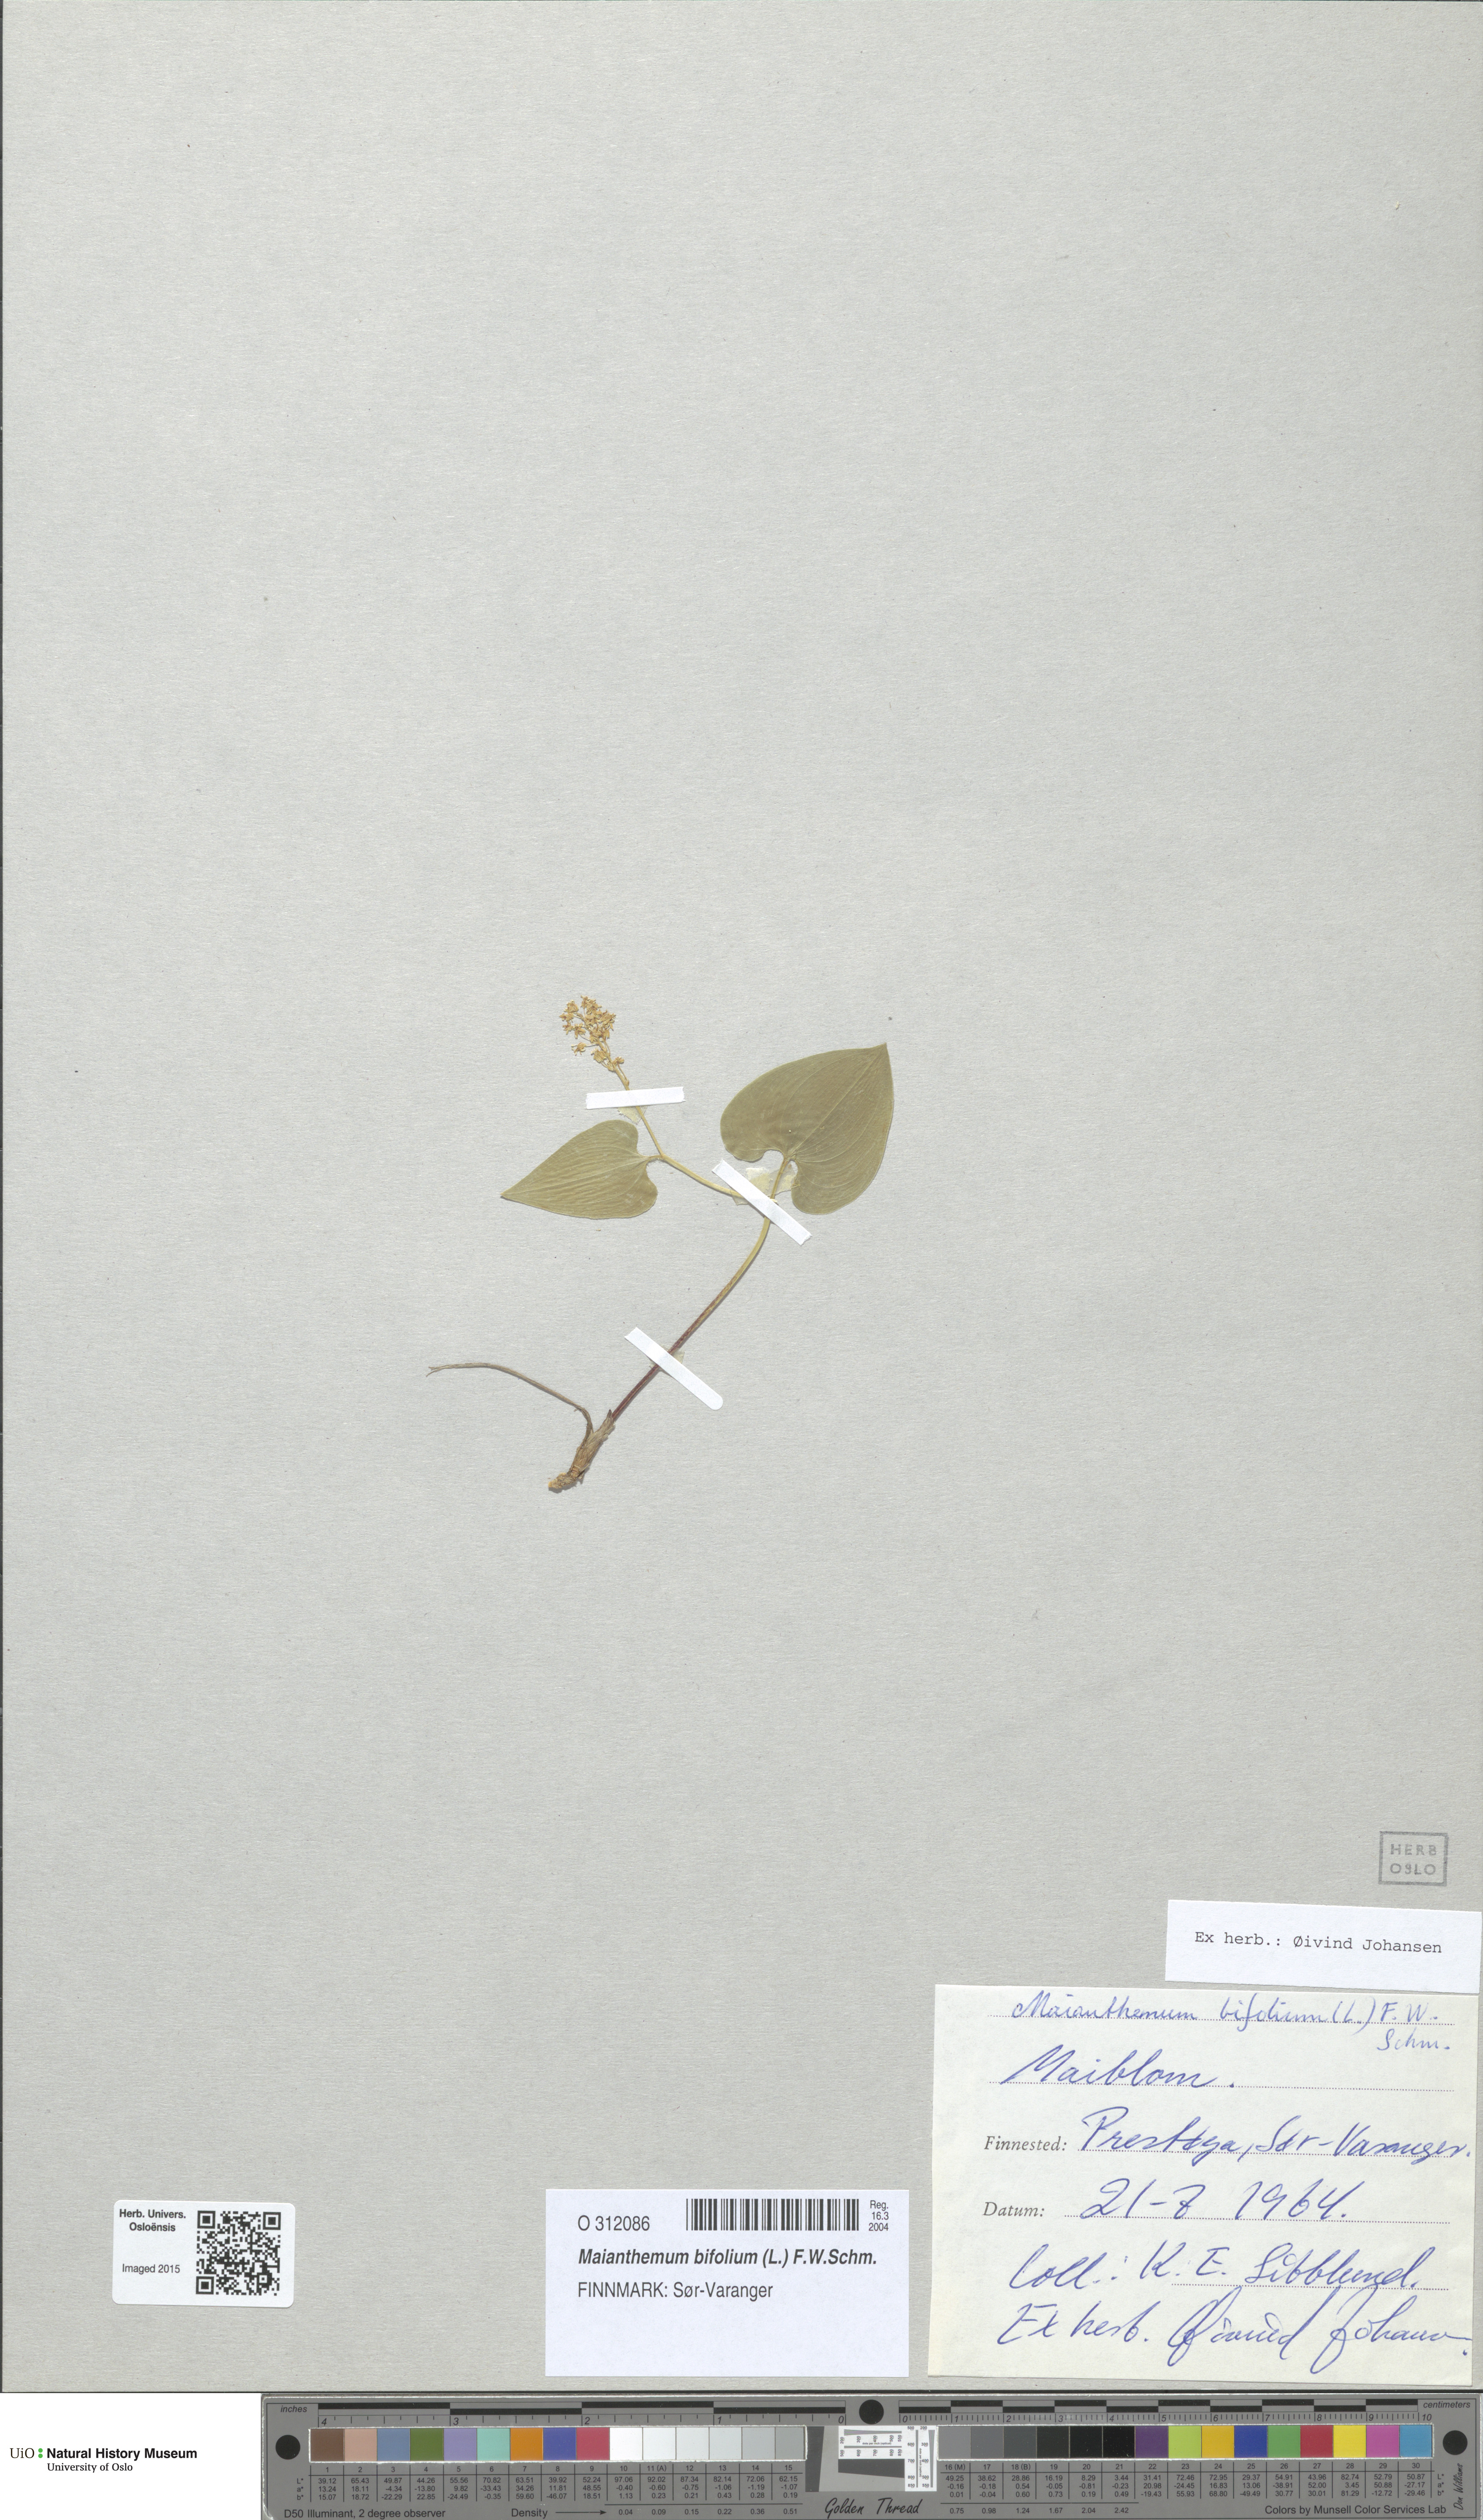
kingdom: Plantae
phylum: Tracheophyta
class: Liliopsida
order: Asparagales
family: Asparagaceae
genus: Maianthemum
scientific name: Maianthemum bifolium
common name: May lily
